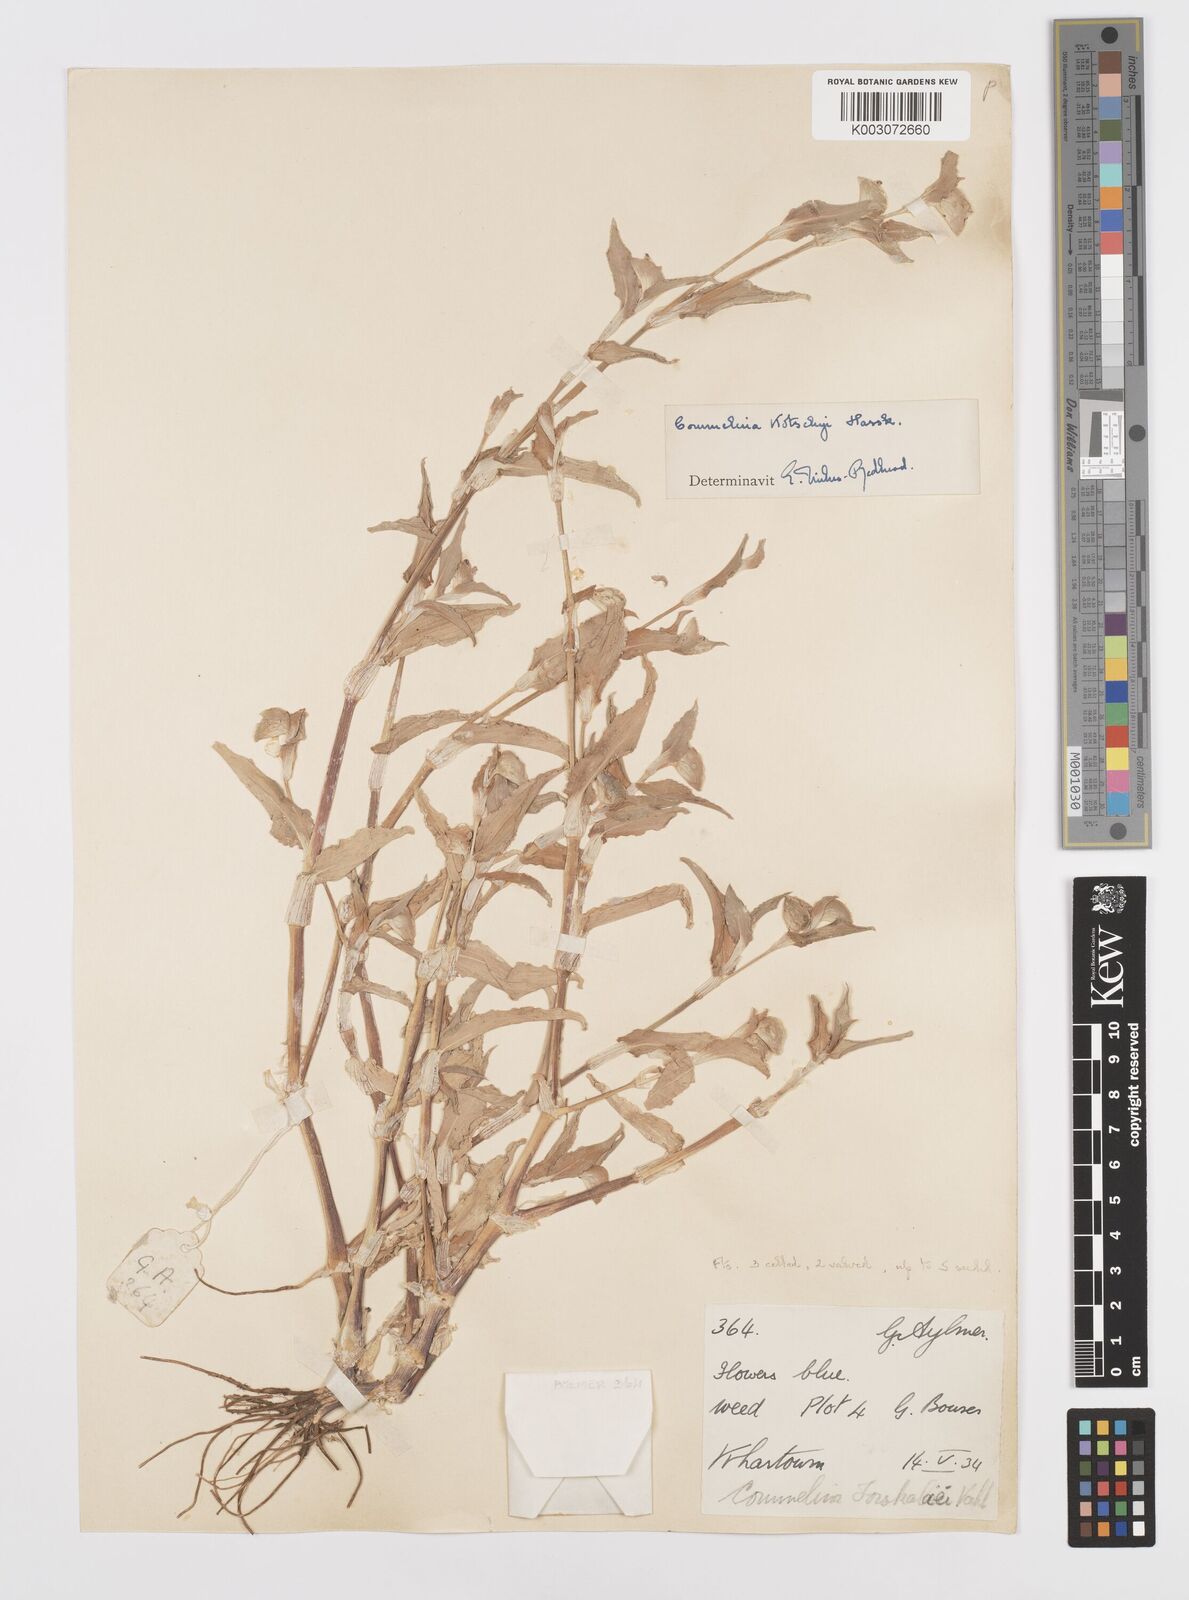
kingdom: Plantae
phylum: Tracheophyta
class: Liliopsida
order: Commelinales
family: Commelinaceae
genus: Commelina
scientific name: Commelina kotschyi
